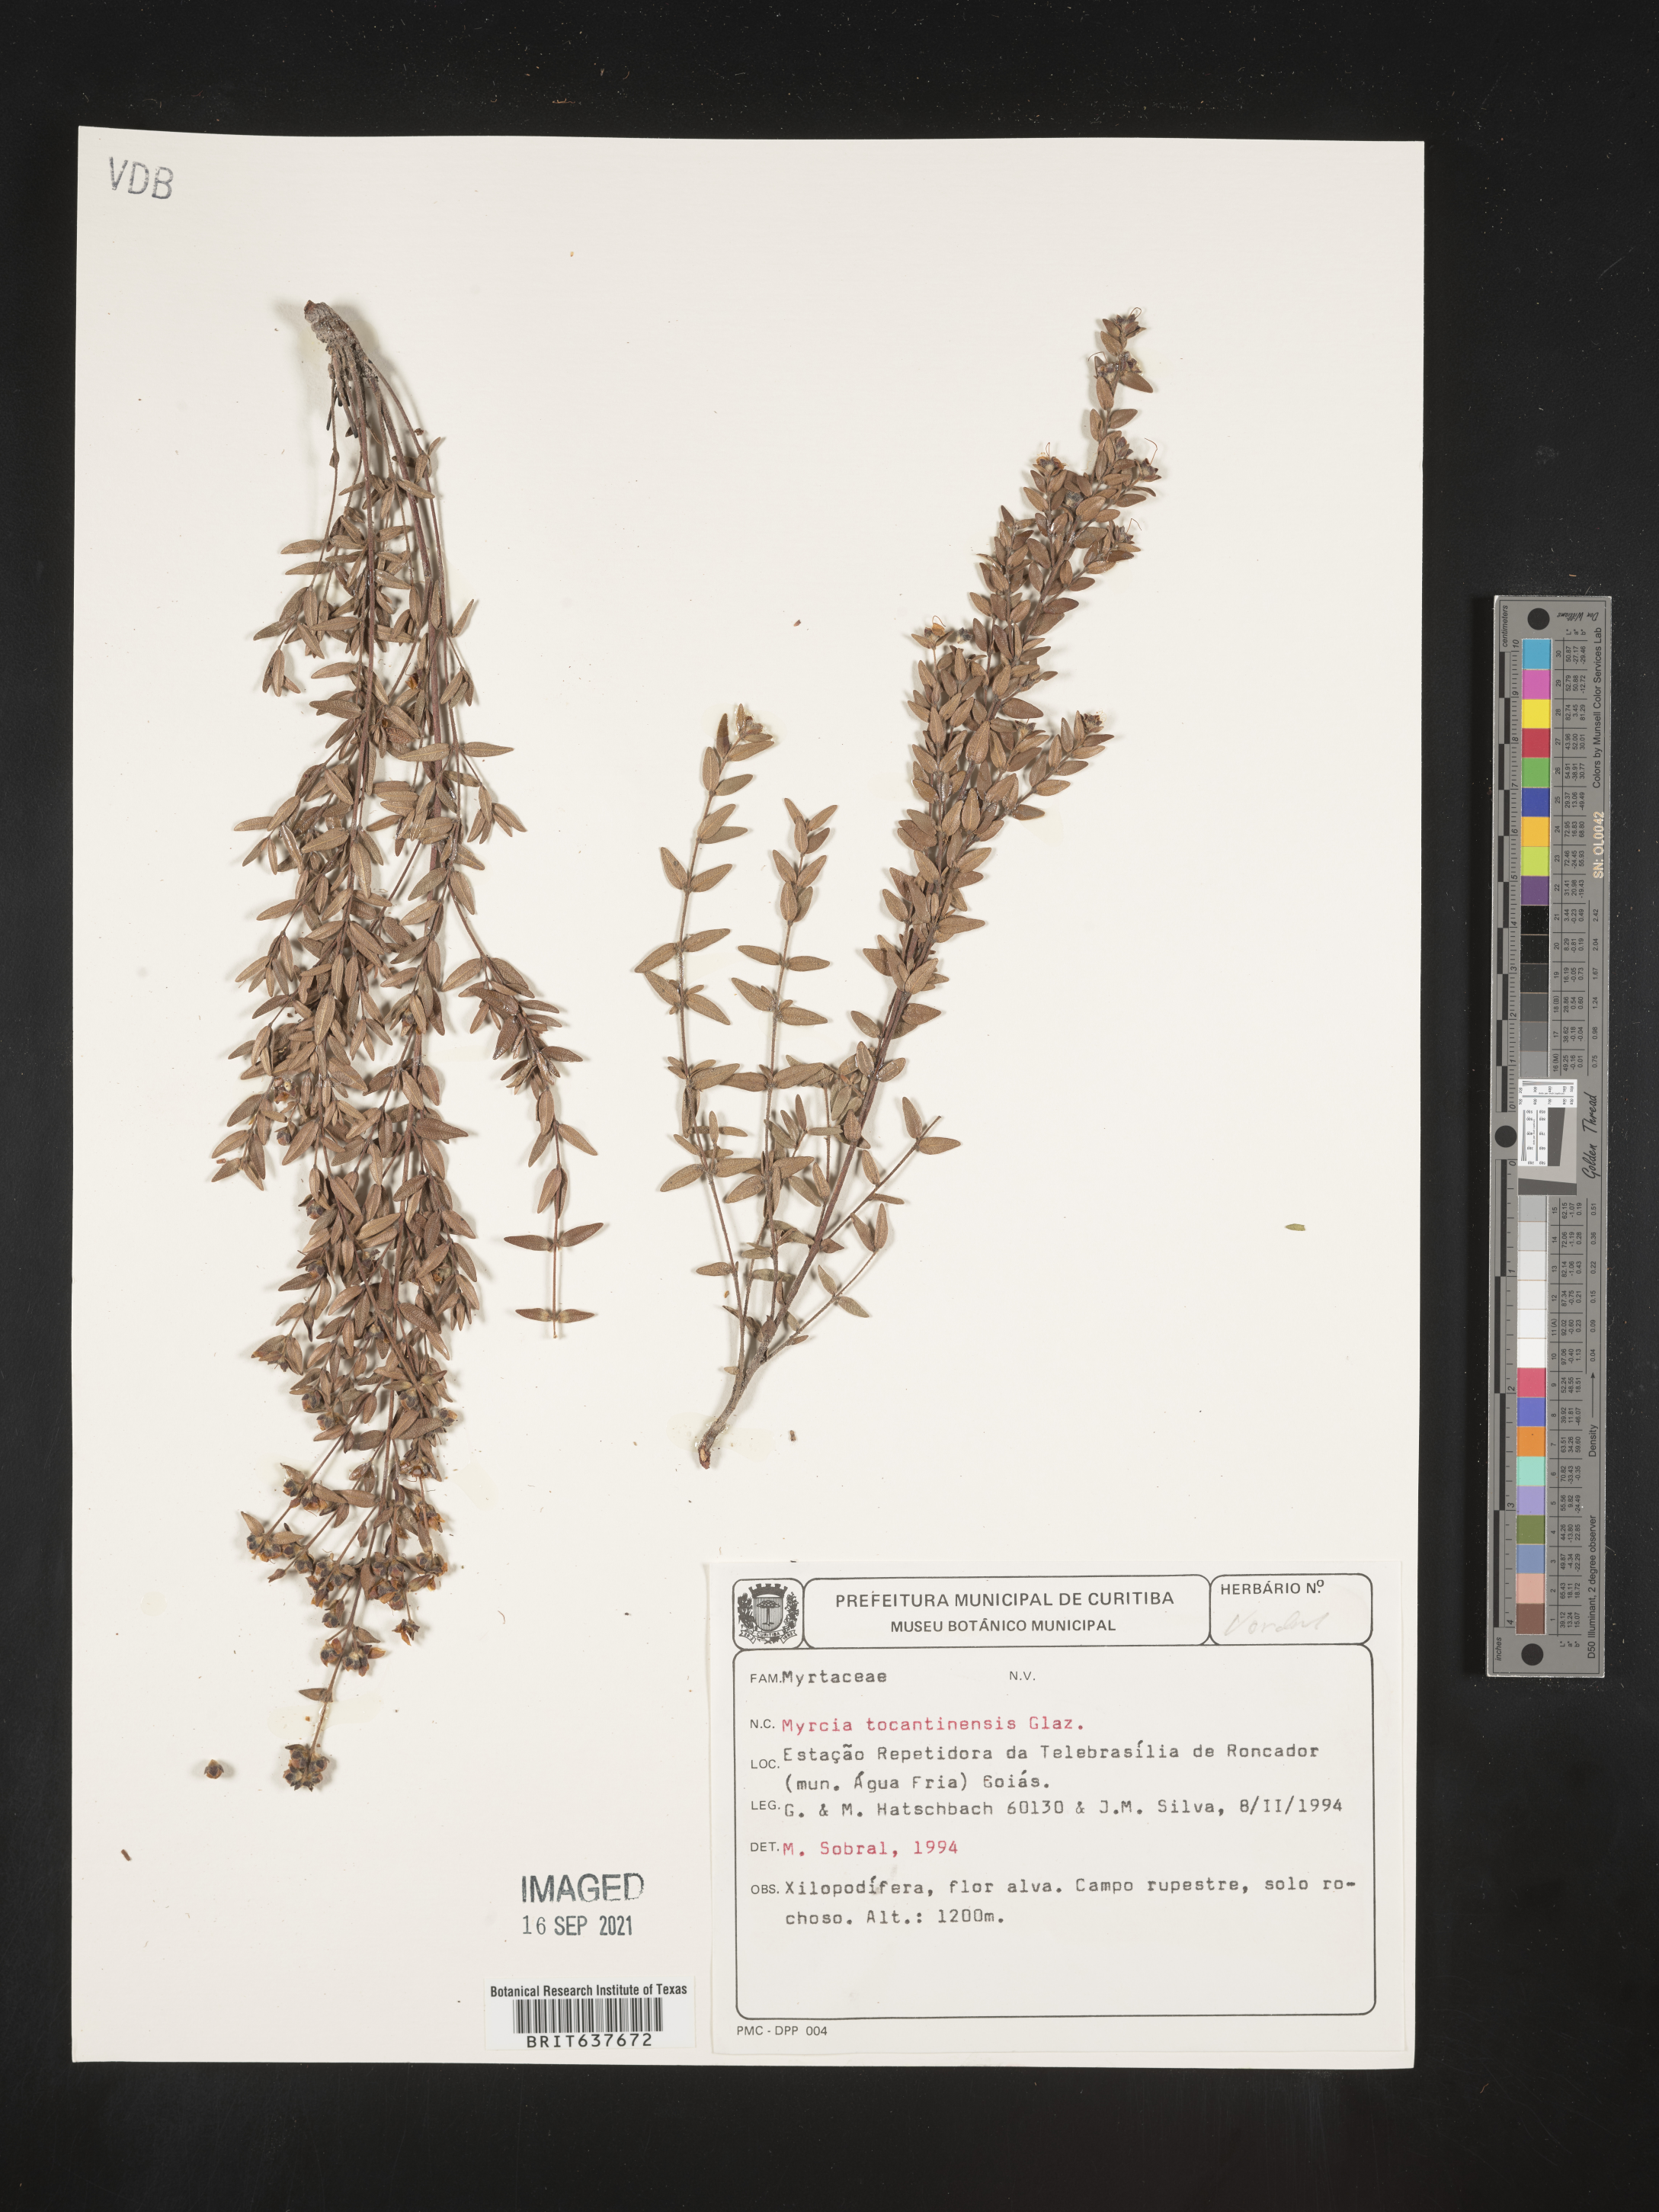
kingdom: Plantae
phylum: Tracheophyta
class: Magnoliopsida
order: Myrtales
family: Myrtaceae
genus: Myrcia
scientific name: Myrcia
